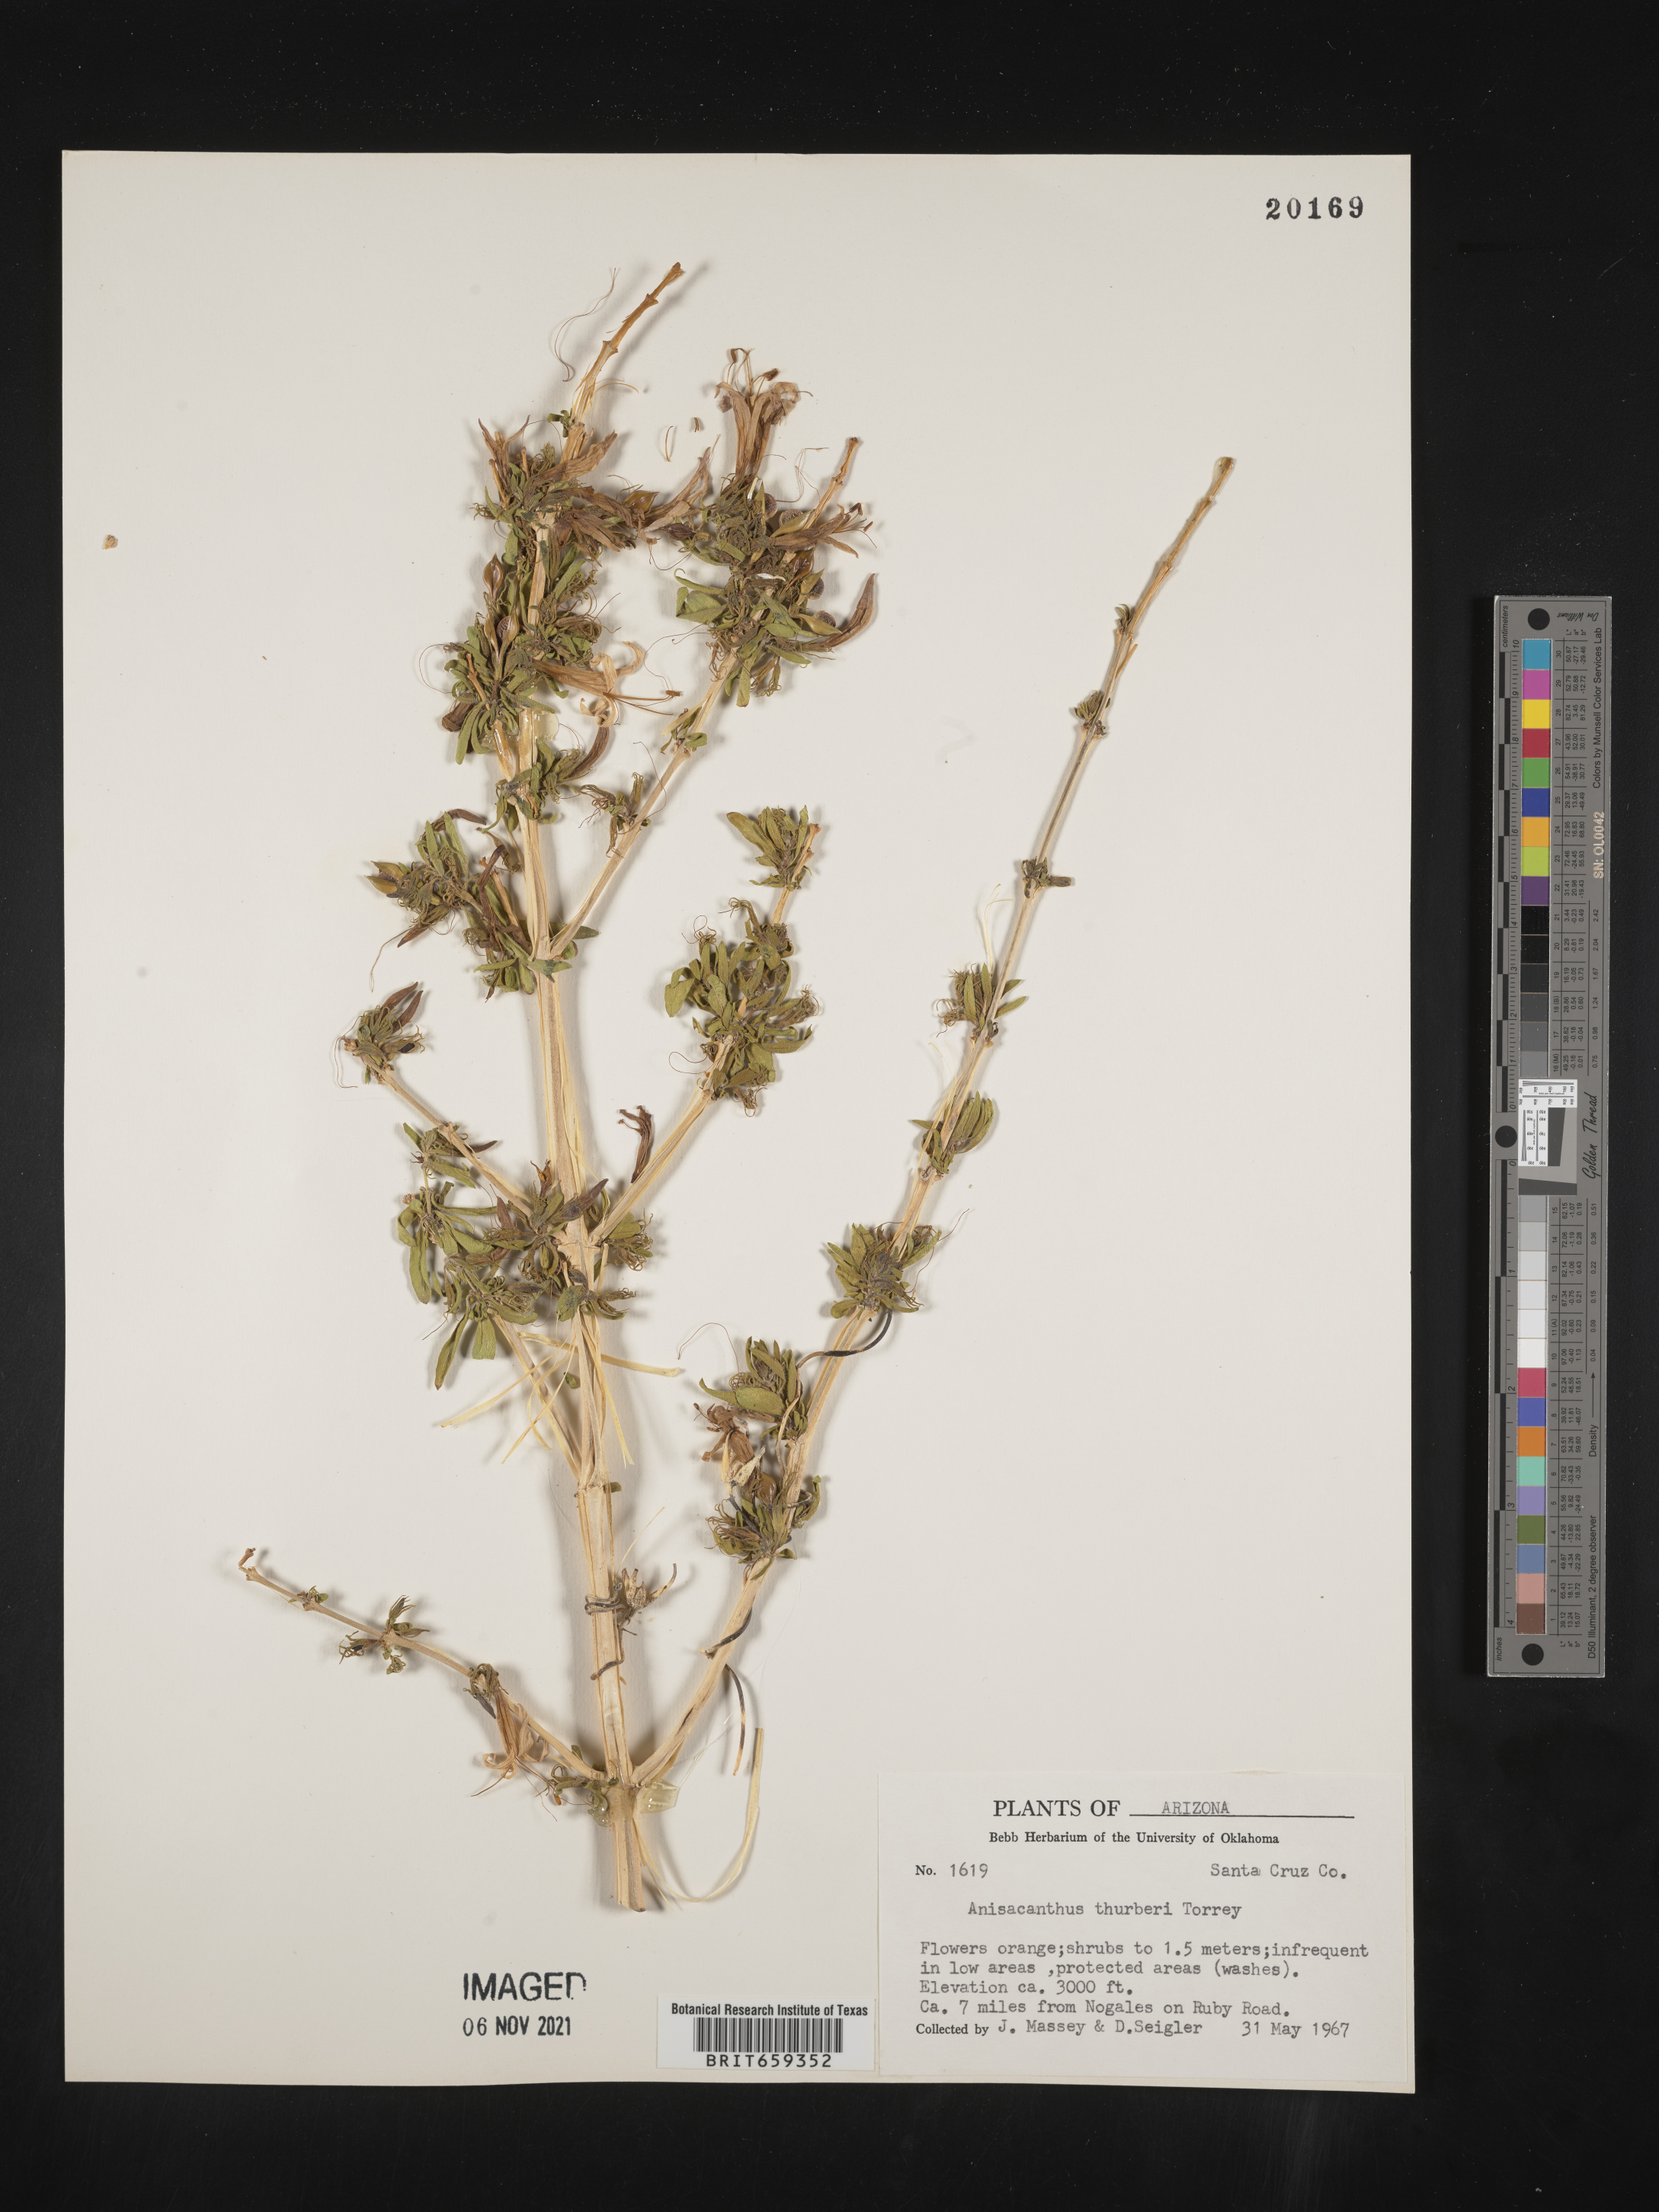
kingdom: Plantae
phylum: Tracheophyta
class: Magnoliopsida
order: Lamiales
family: Acanthaceae
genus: Anisacanthus
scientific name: Anisacanthus
